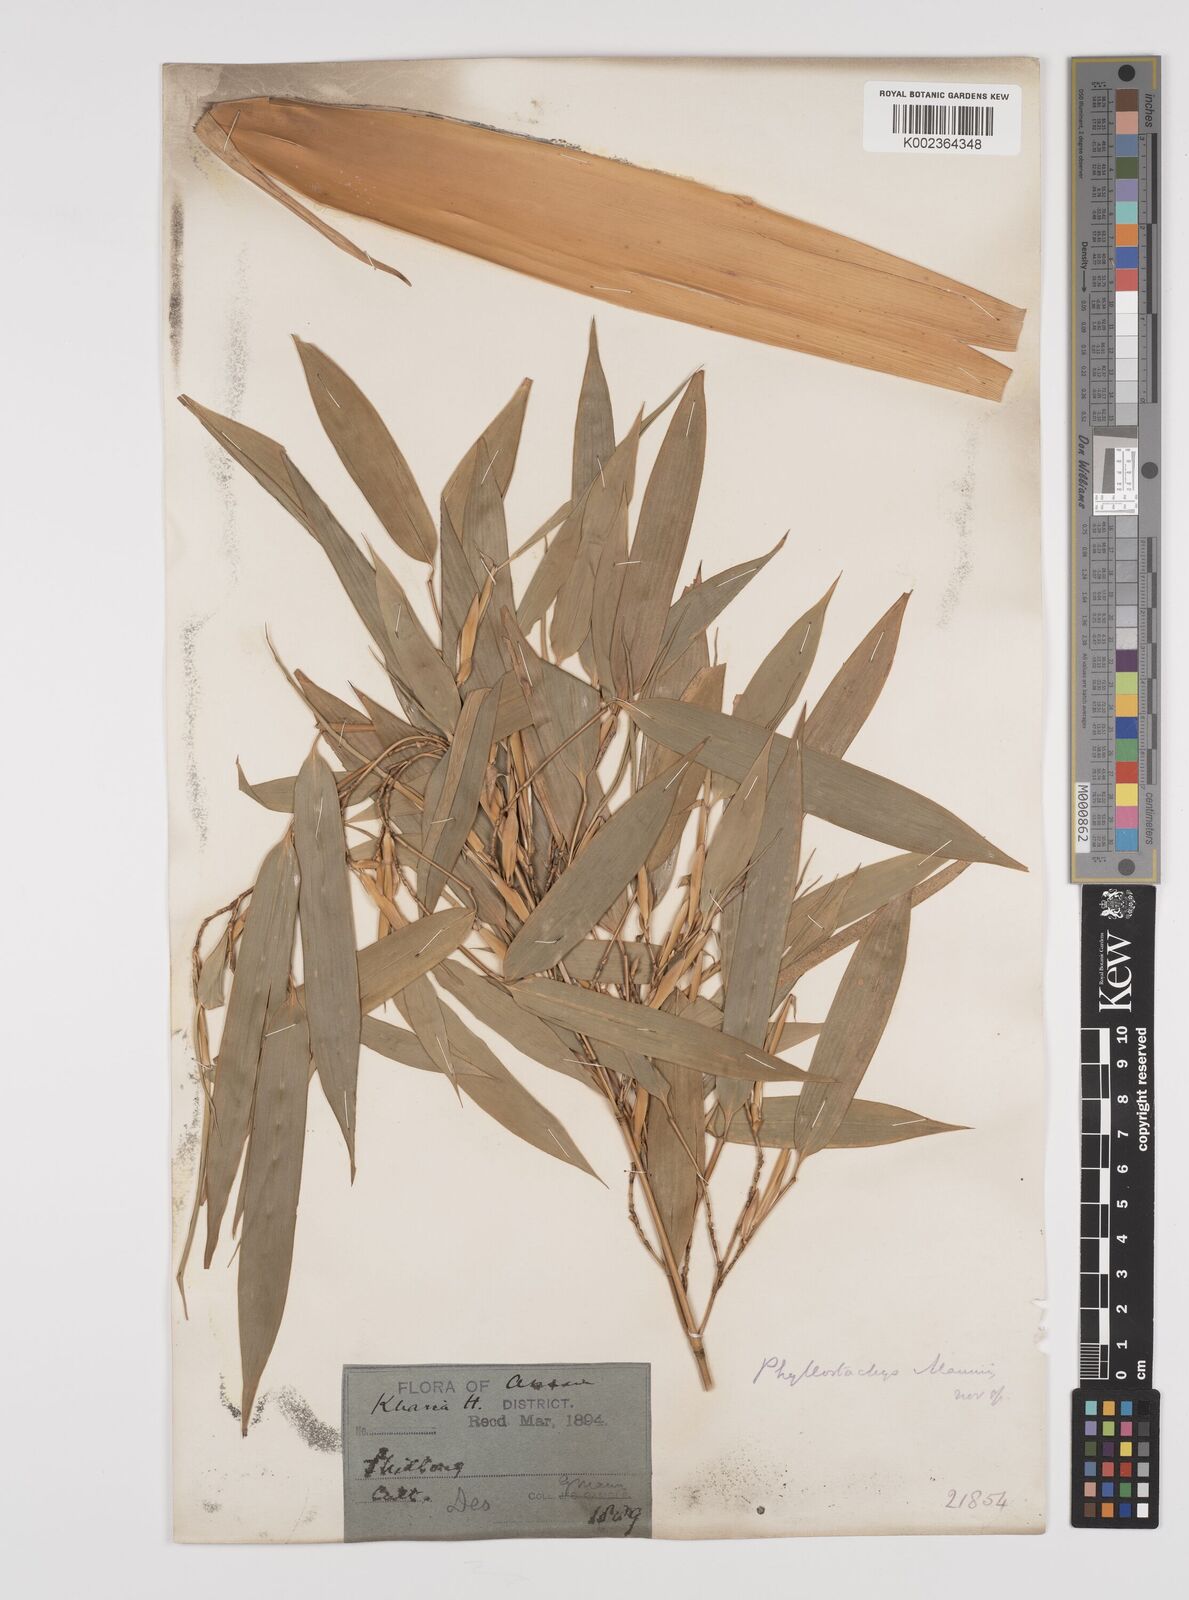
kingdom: Plantae
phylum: Tracheophyta
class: Liliopsida
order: Poales
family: Poaceae
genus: Phyllostachys
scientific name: Phyllostachys mannii
